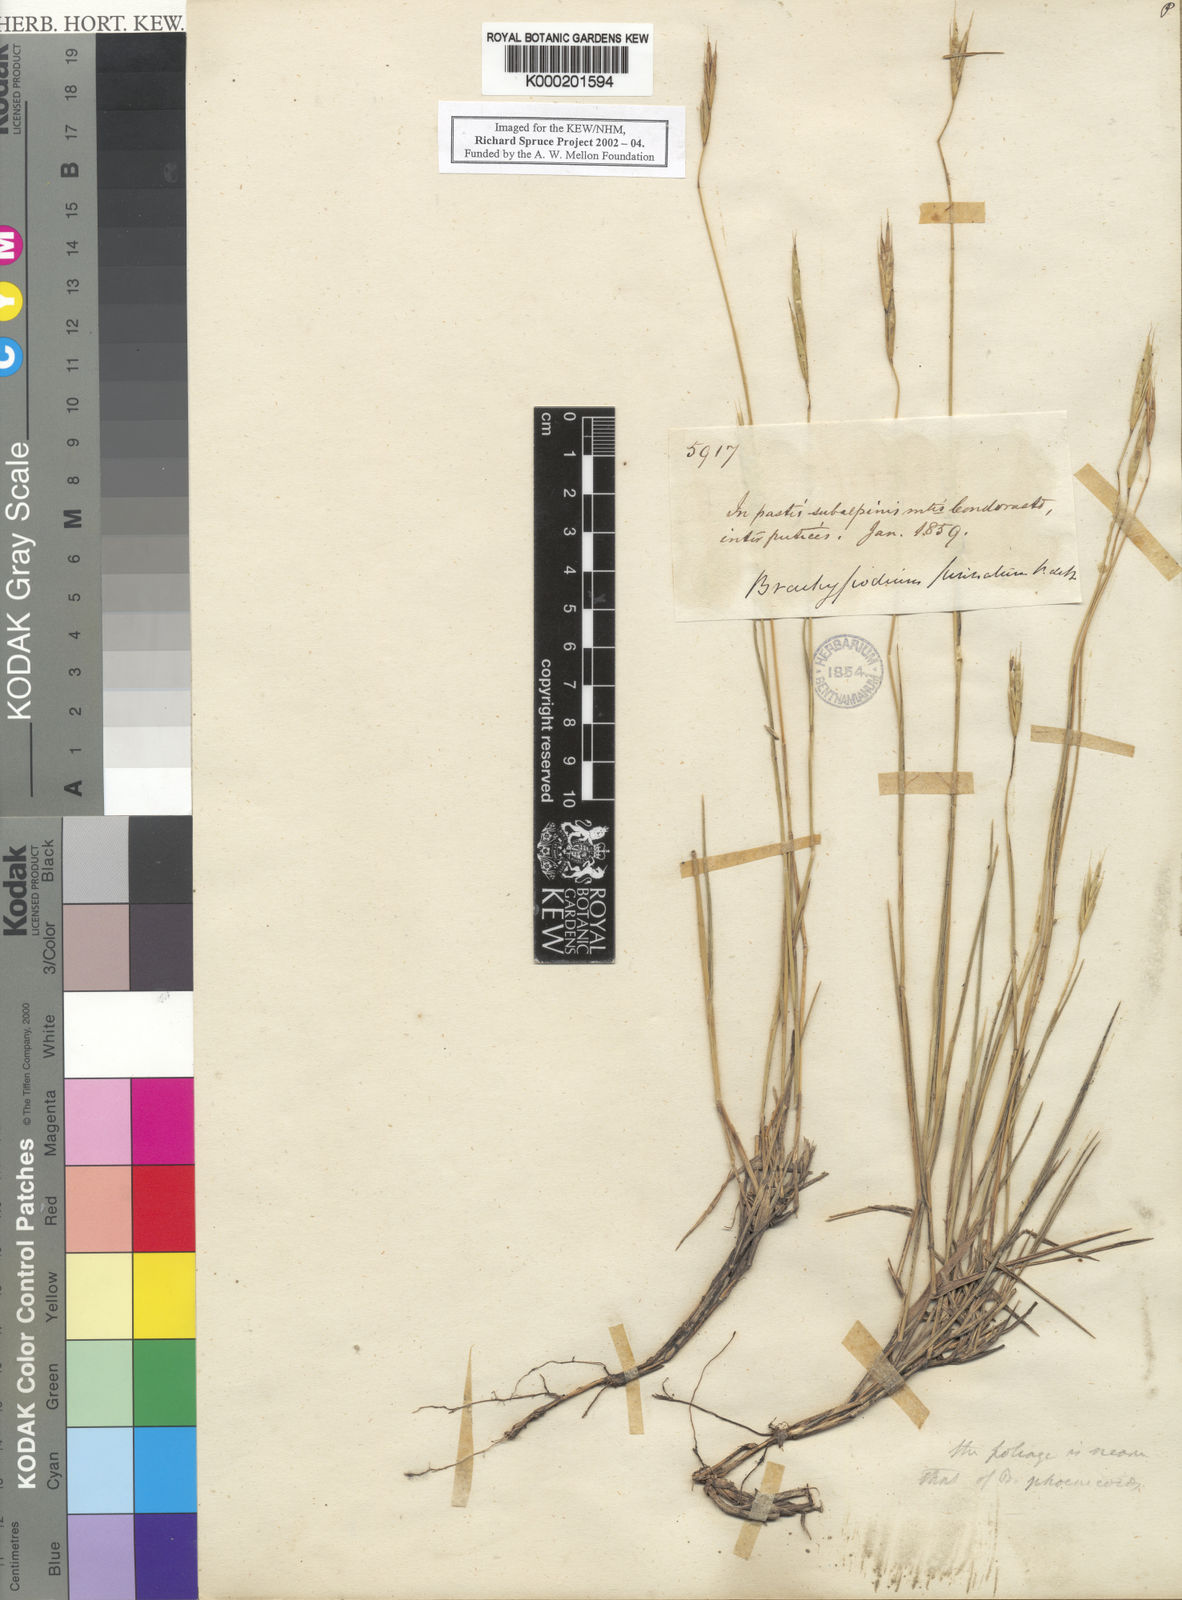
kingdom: Plantae
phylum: Tracheophyta
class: Liliopsida
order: Poales
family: Poaceae
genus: Brachypodium
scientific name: Brachypodium mexicanum
